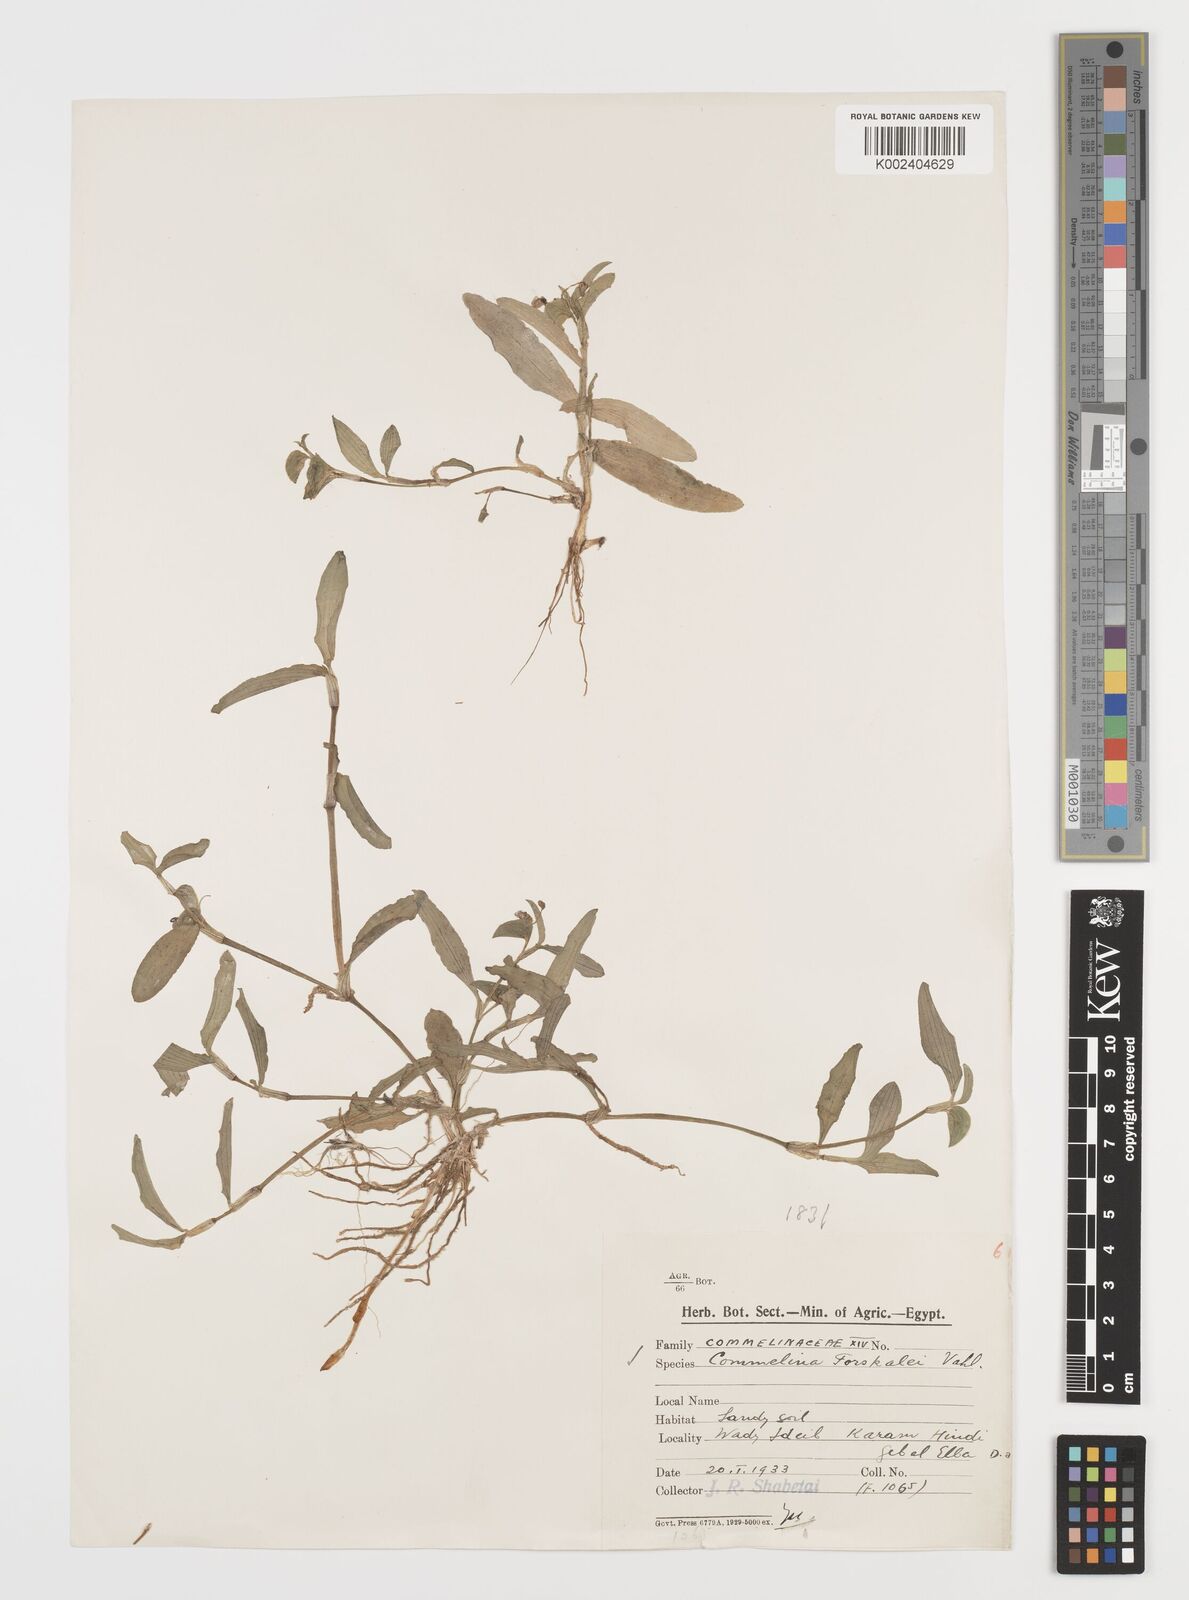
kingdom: Plantae
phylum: Tracheophyta
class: Liliopsida
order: Commelinales
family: Commelinaceae
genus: Commelina
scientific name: Commelina forskaolii
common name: Rat's ear
